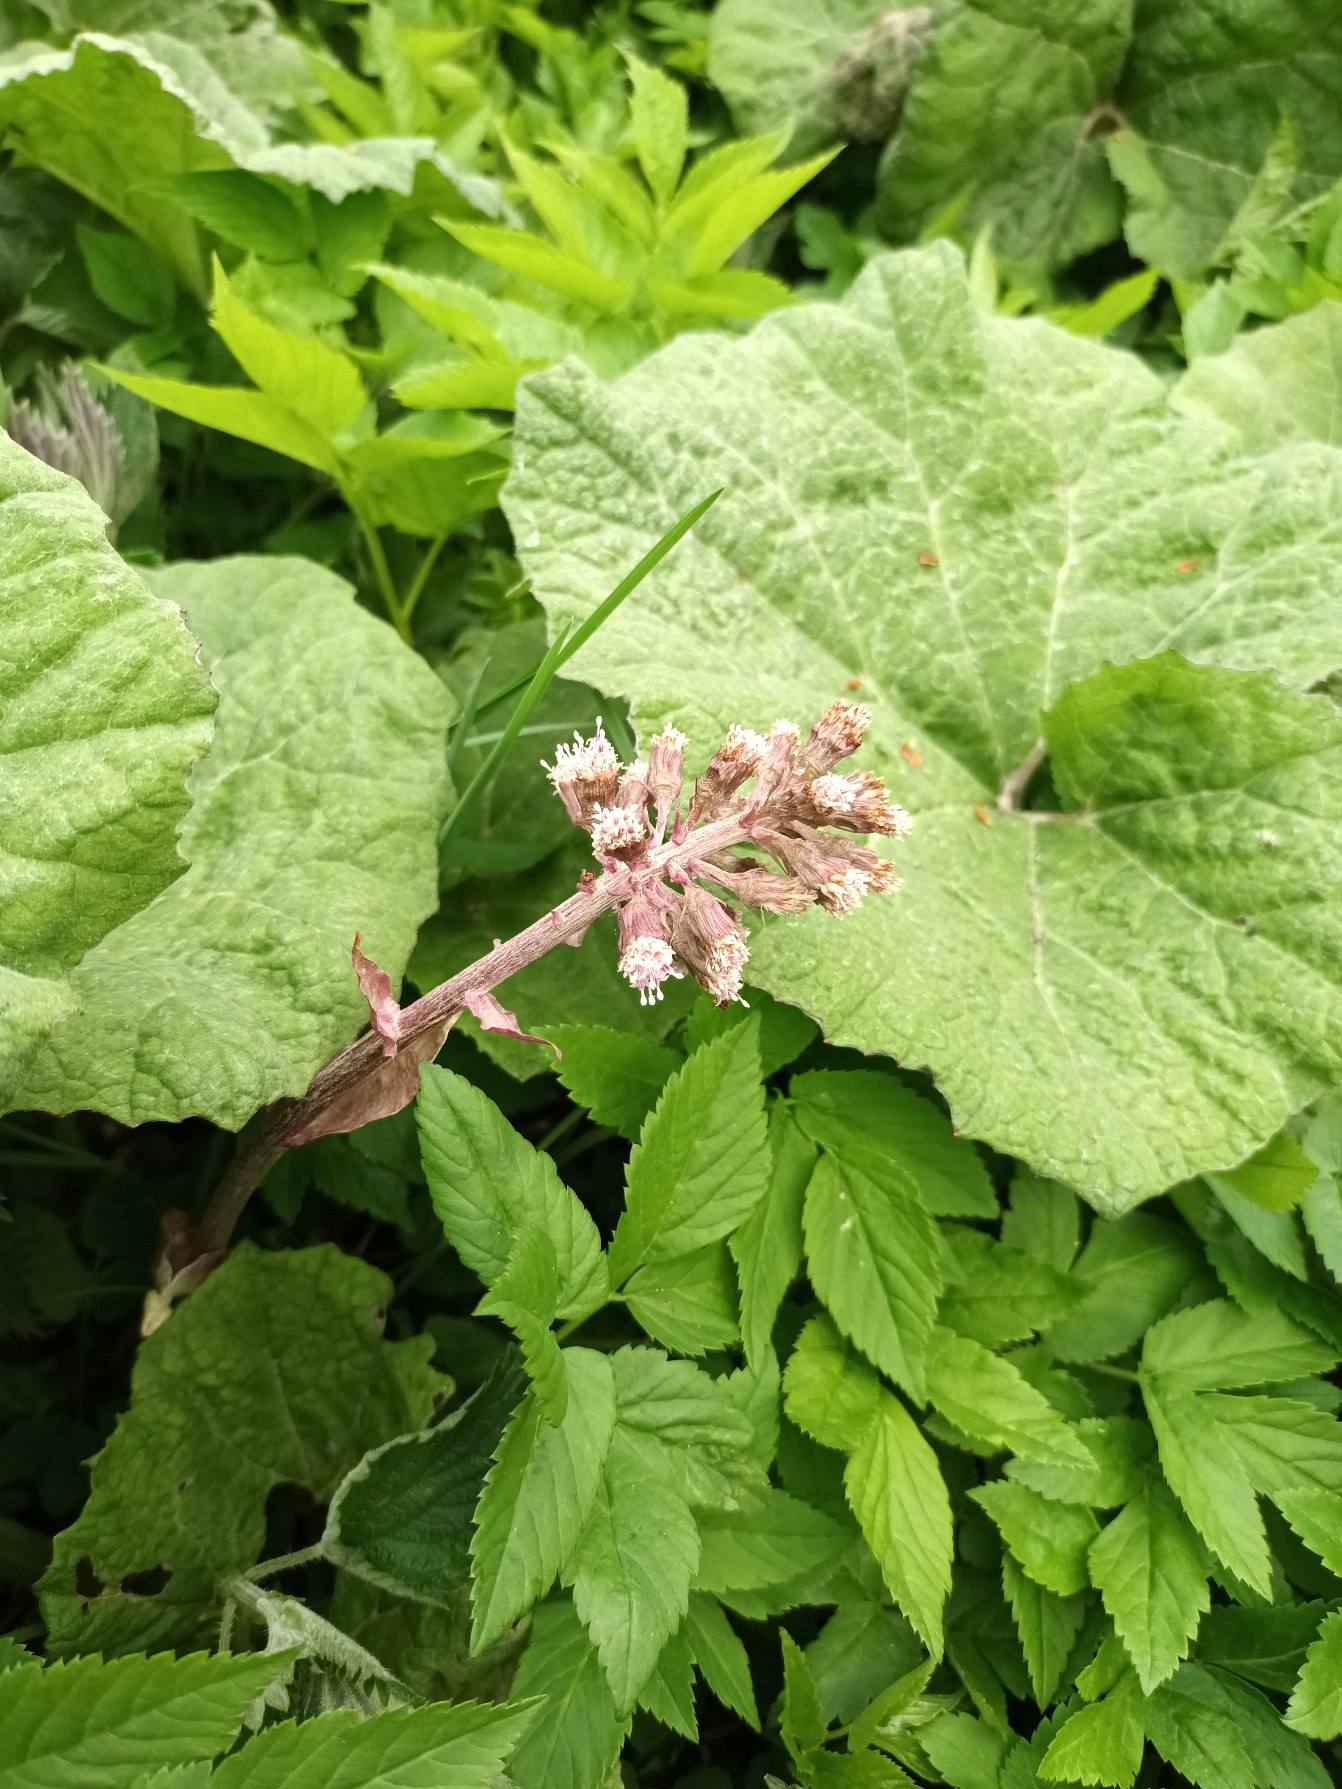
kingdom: Plantae
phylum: Tracheophyta
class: Magnoliopsida
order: Asterales
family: Asteraceae
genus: Petasites
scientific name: Petasites hybridus
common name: Rød hestehov
